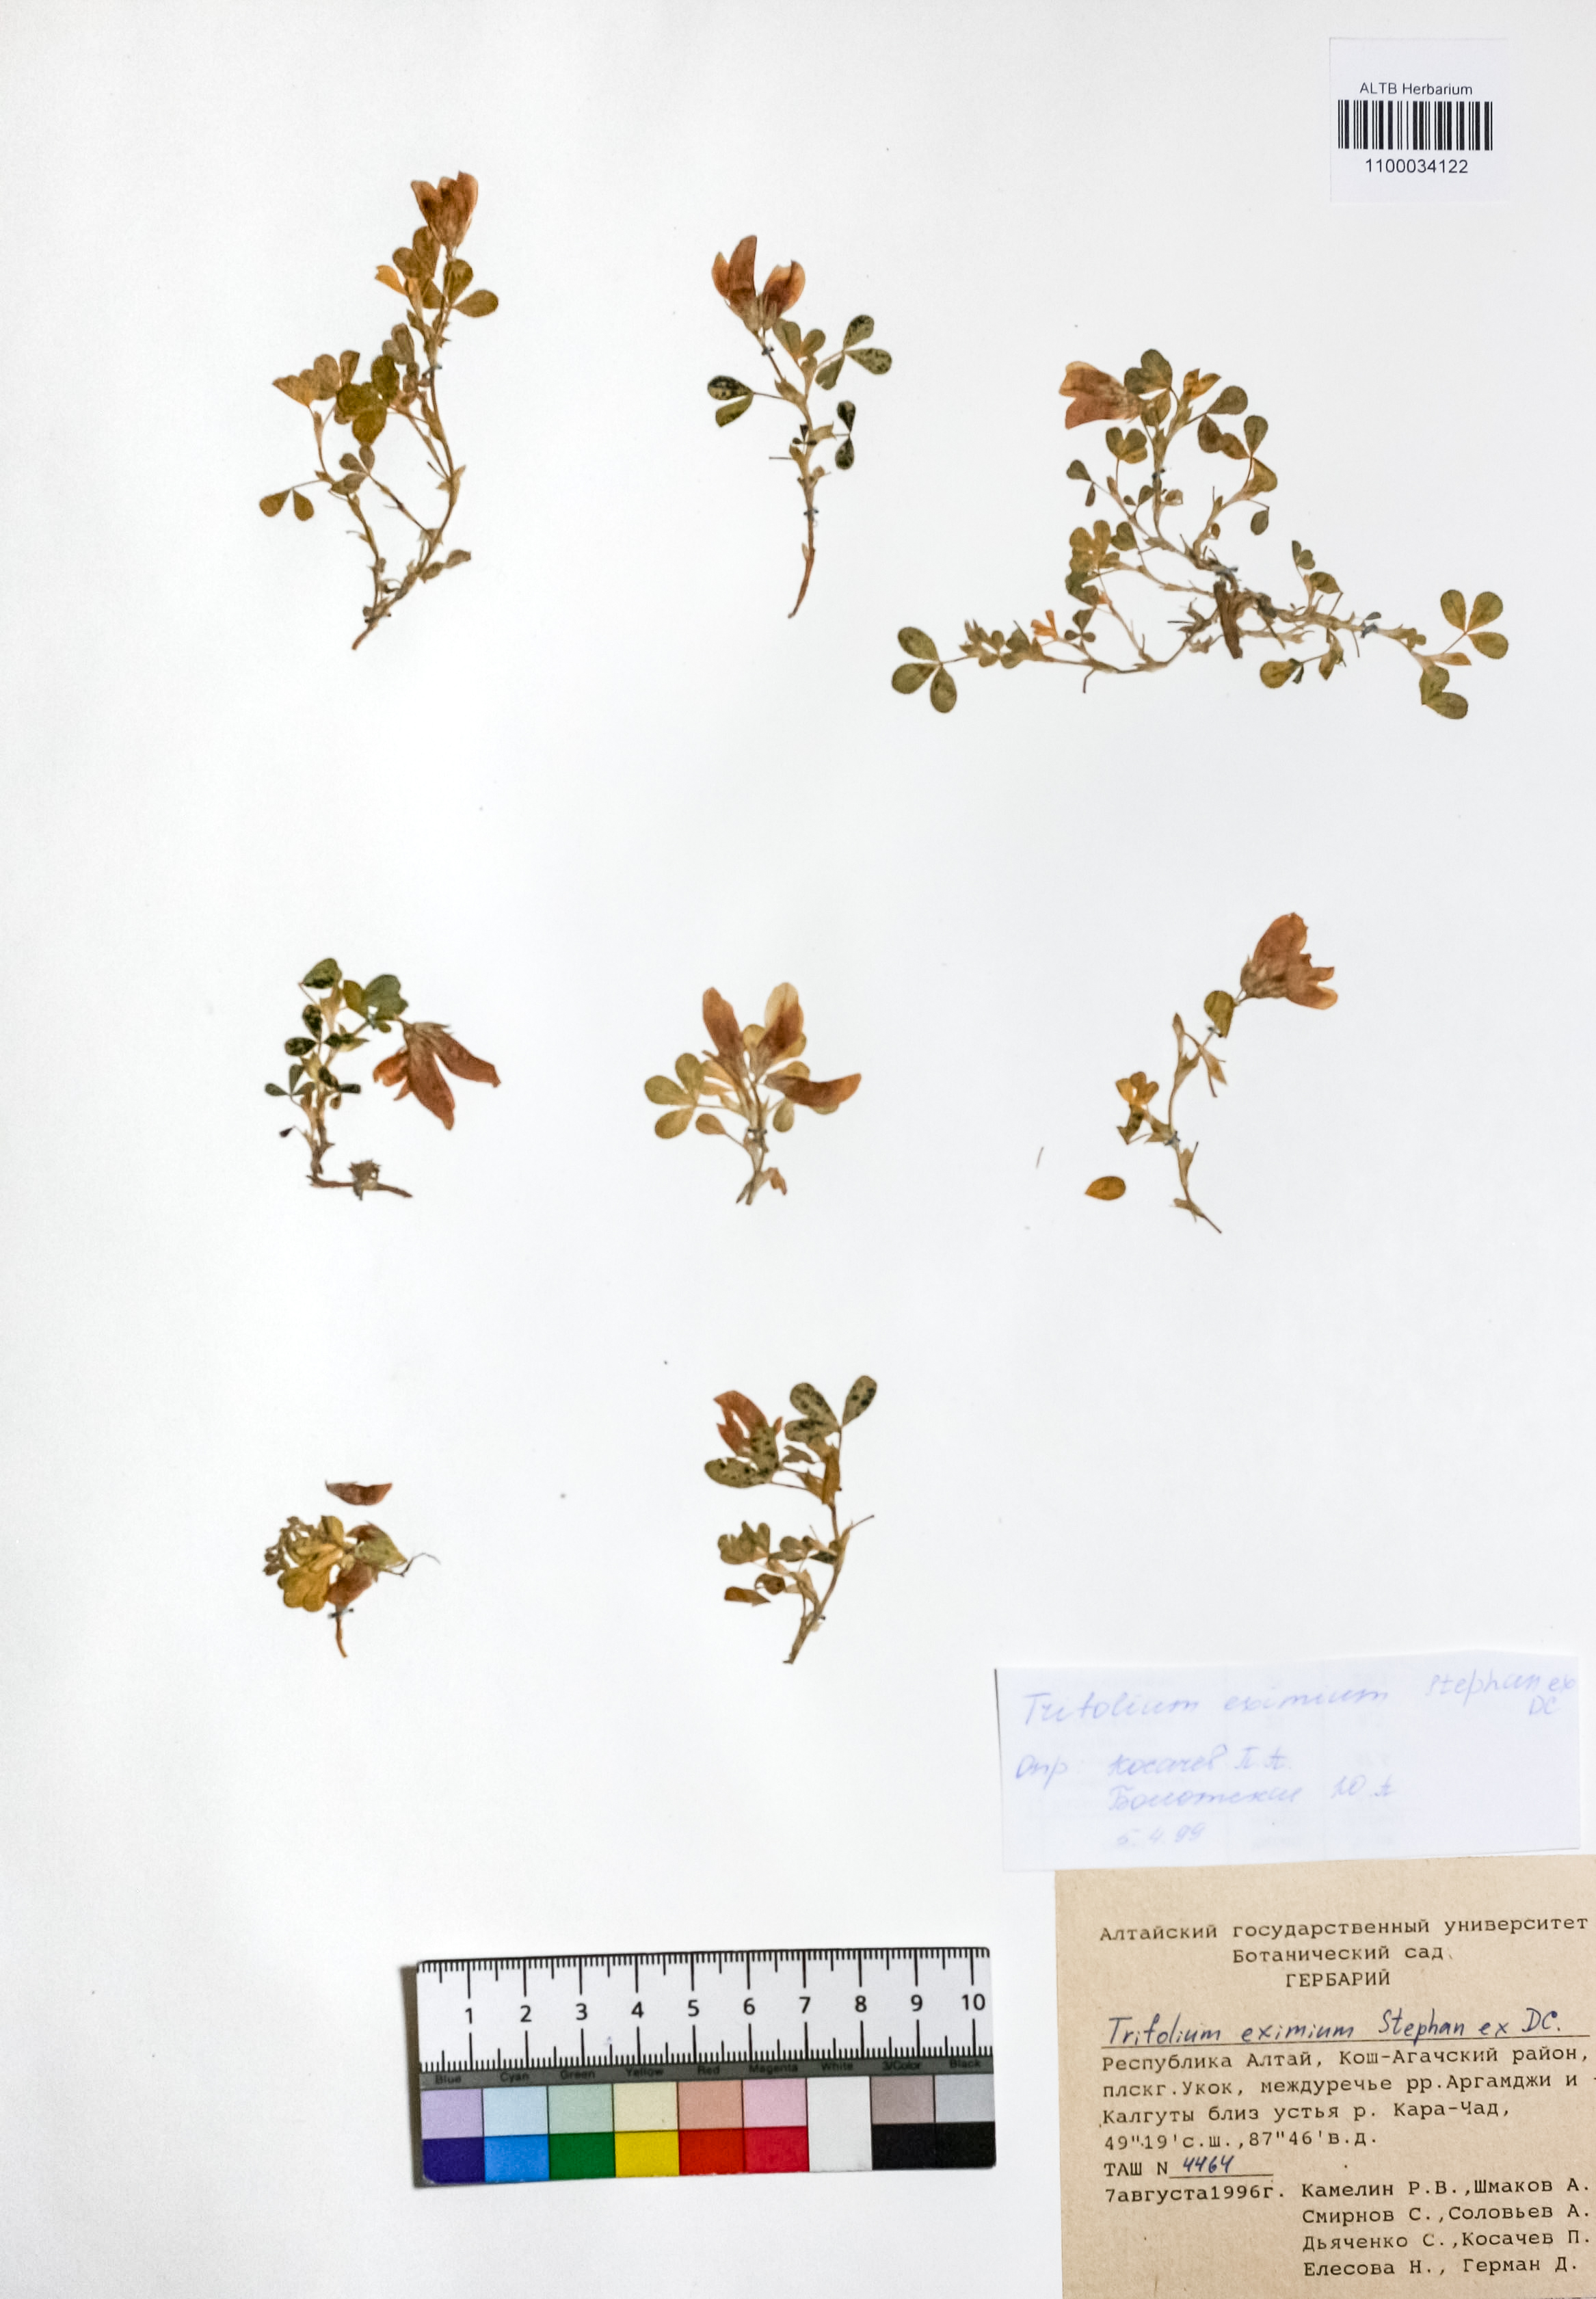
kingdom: Plantae
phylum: Tracheophyta
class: Magnoliopsida
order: Fabales
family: Fabaceae
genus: Trifolium
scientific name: Trifolium eximium
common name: Excellent clover
